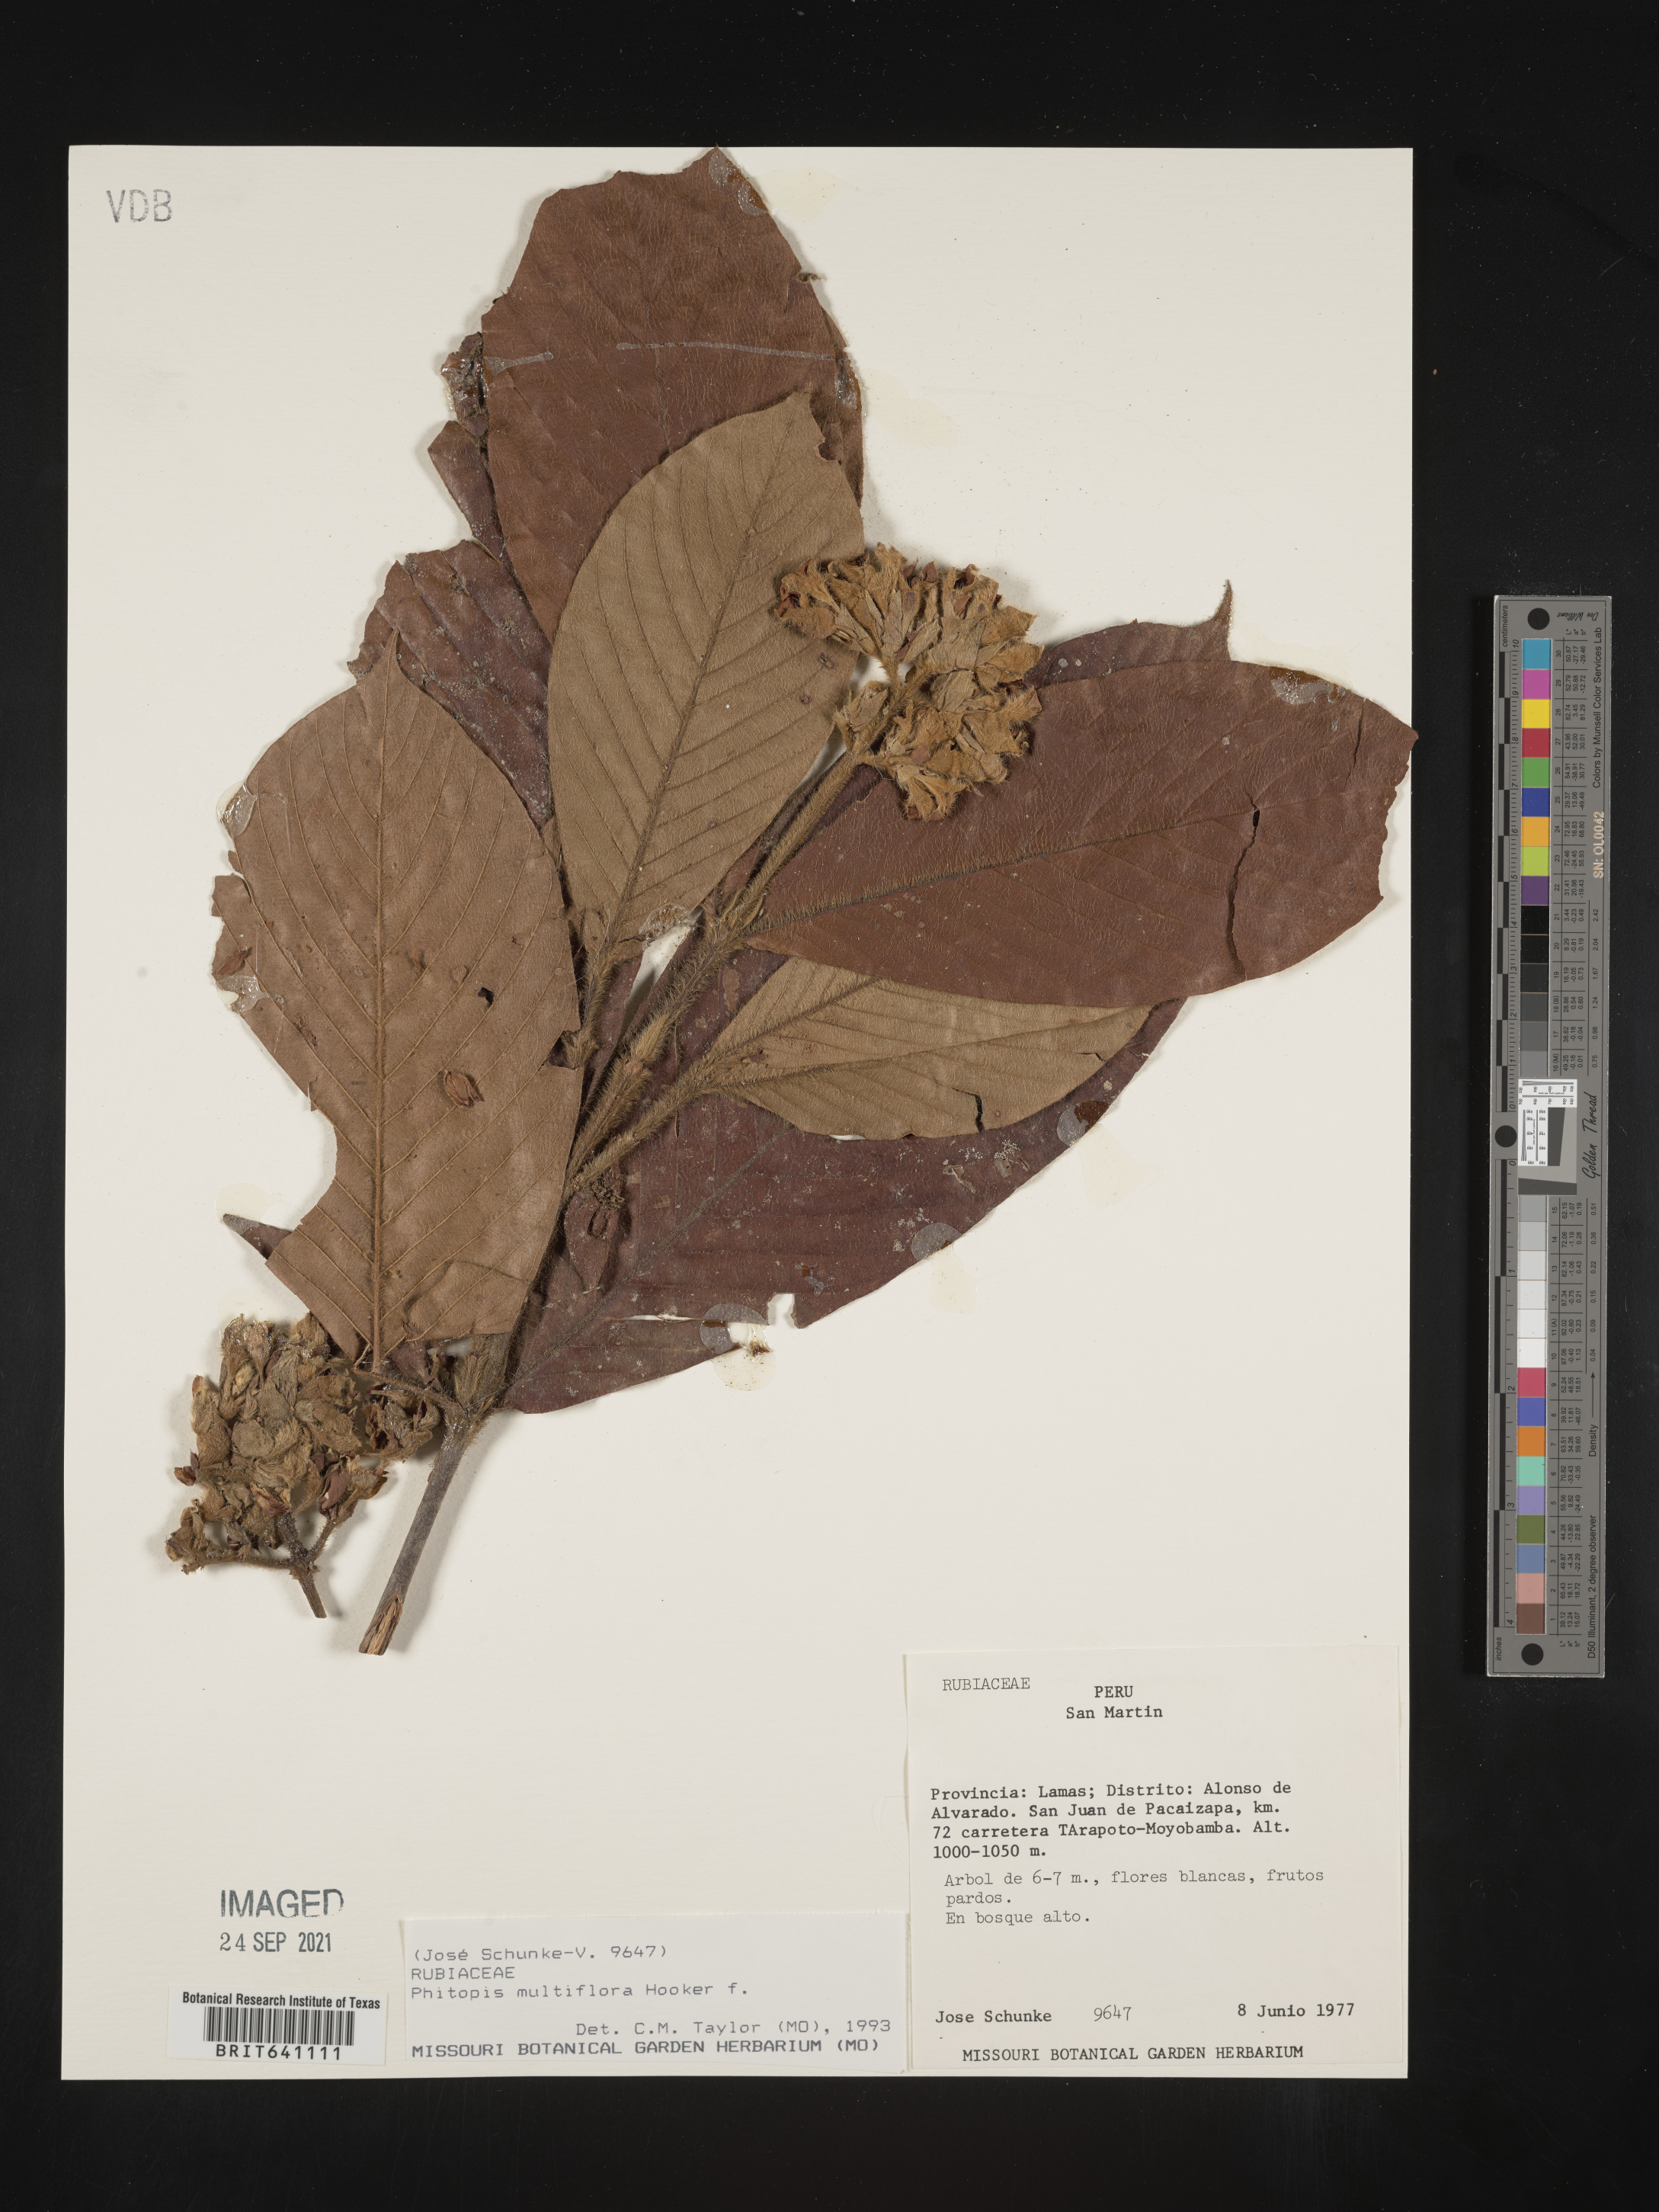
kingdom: Plantae
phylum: Tracheophyta
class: Magnoliopsida
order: Gentianales
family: Rubiaceae
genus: Schizocalyx
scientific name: Schizocalyx
